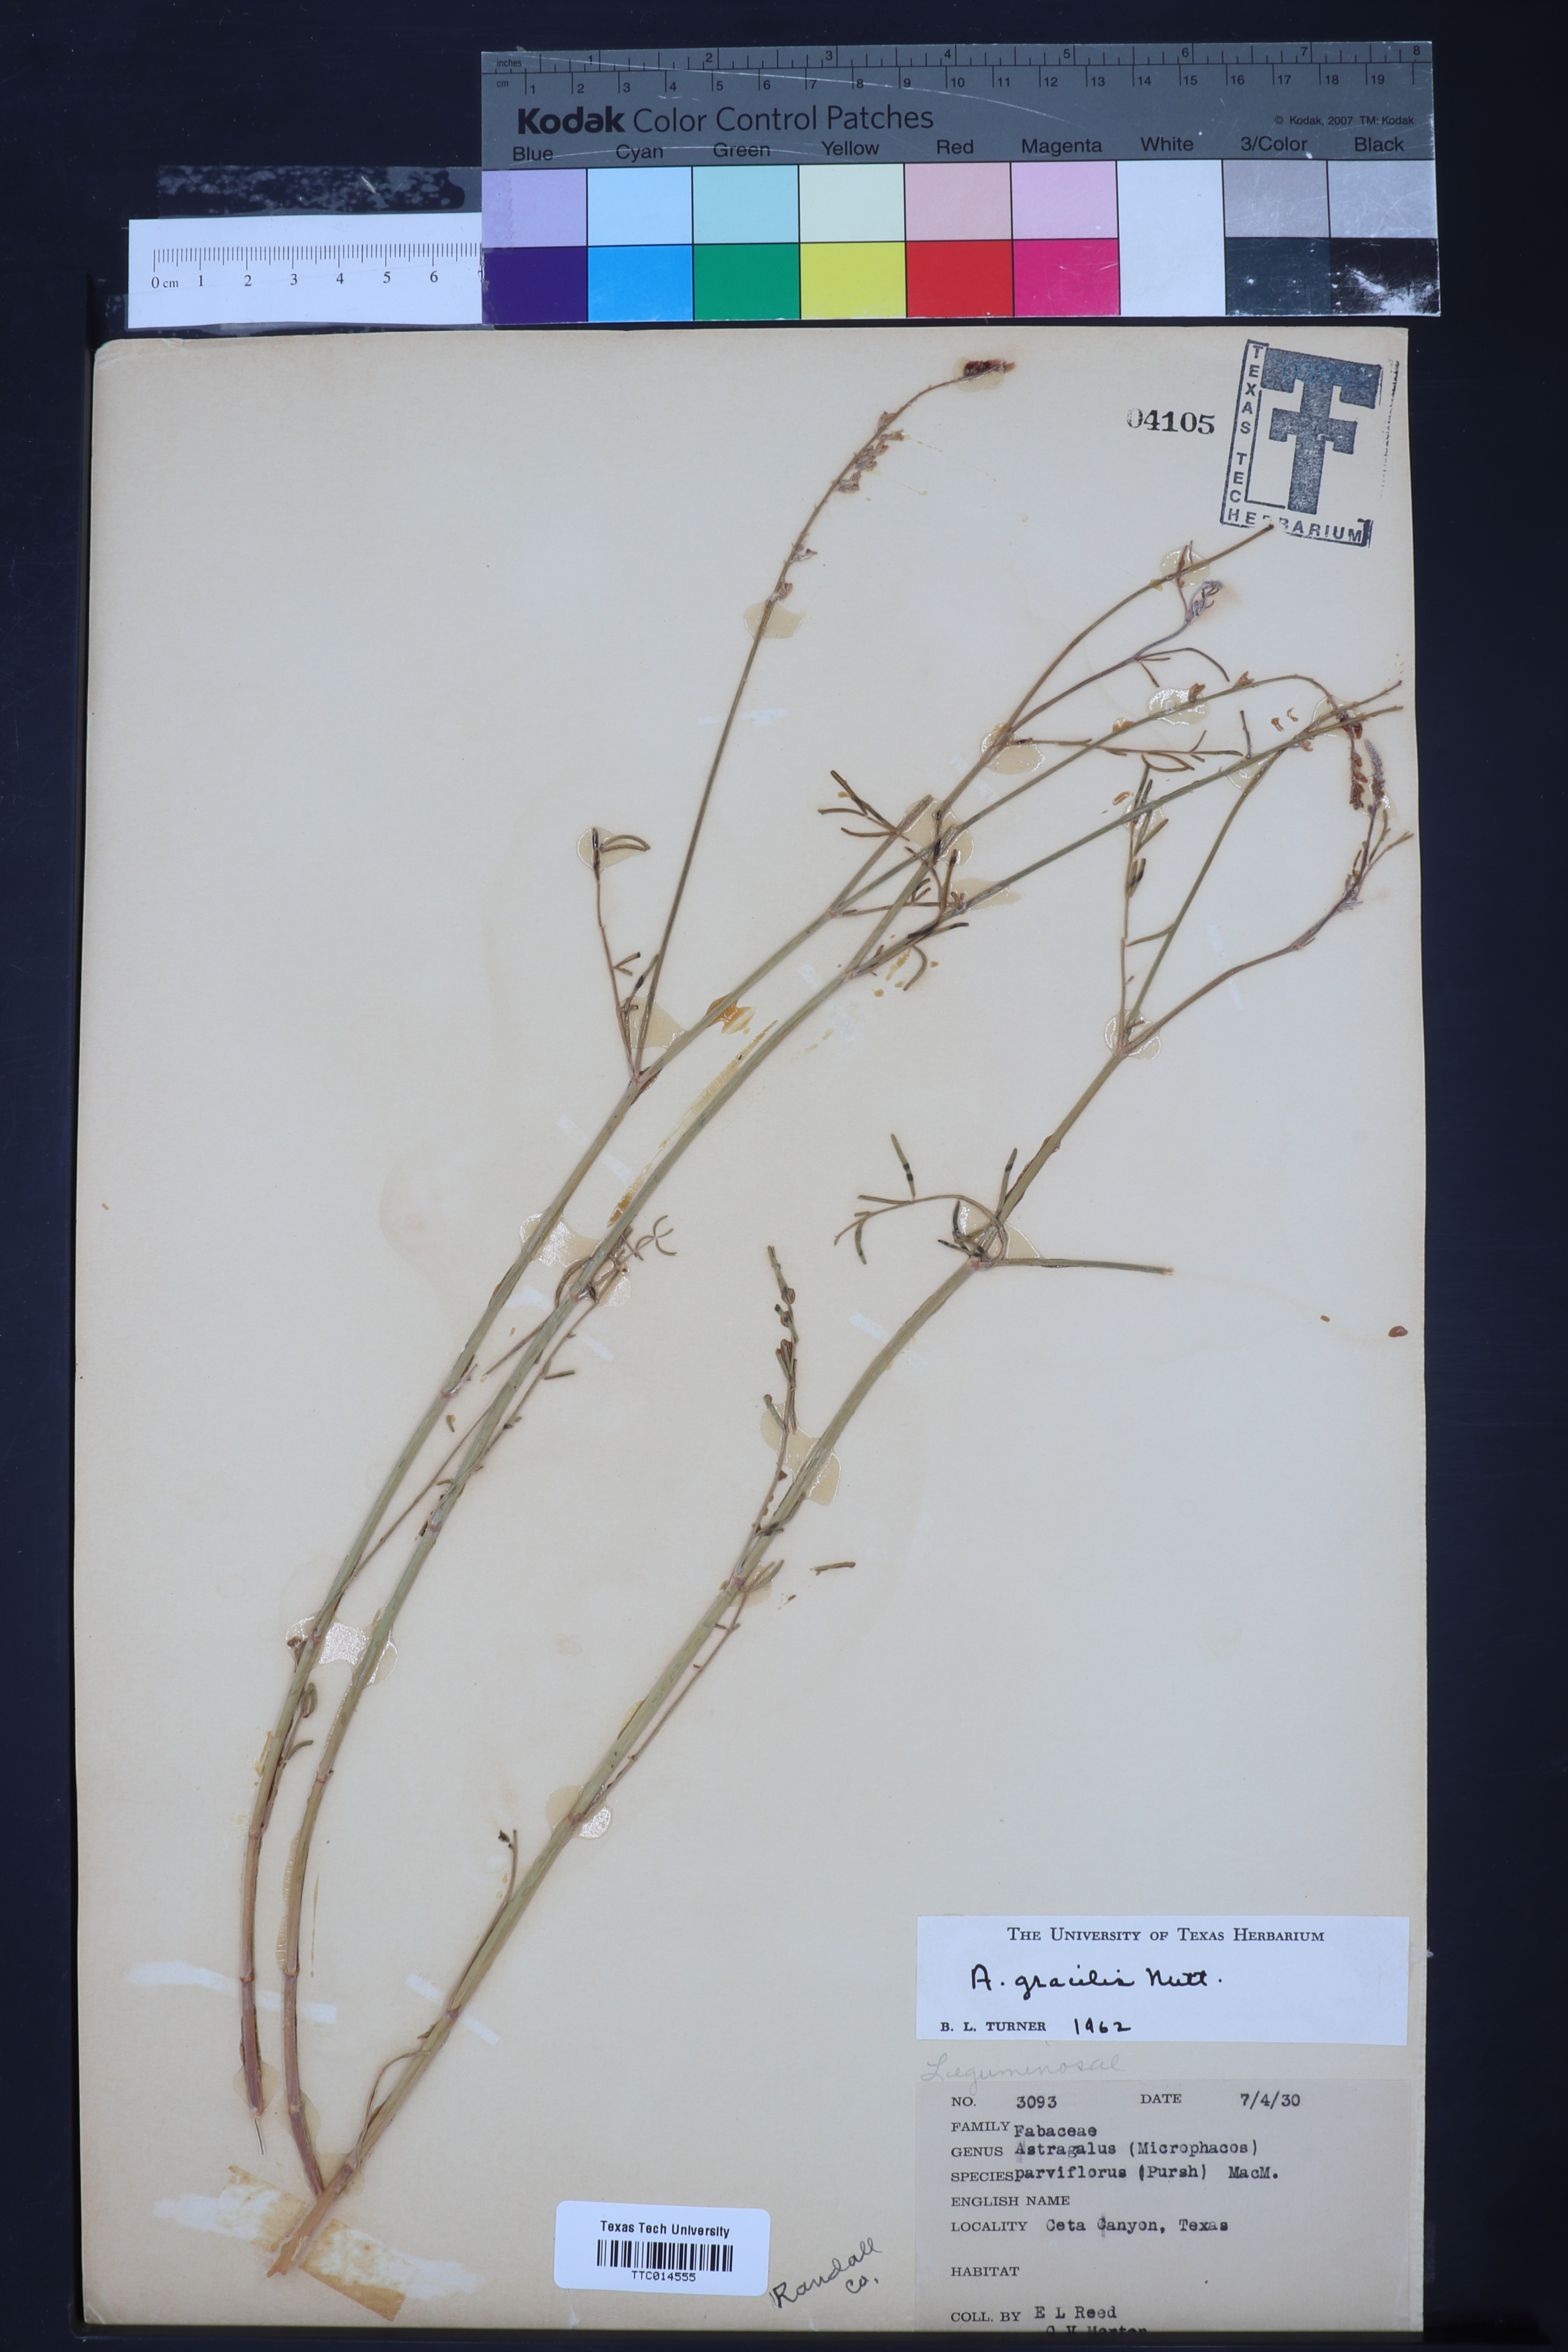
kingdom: Plantae
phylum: Tracheophyta
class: Magnoliopsida
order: Fabales
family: Fabaceae
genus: Astragalus
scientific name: Astragalus gracilis
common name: Slender milk-vetch
